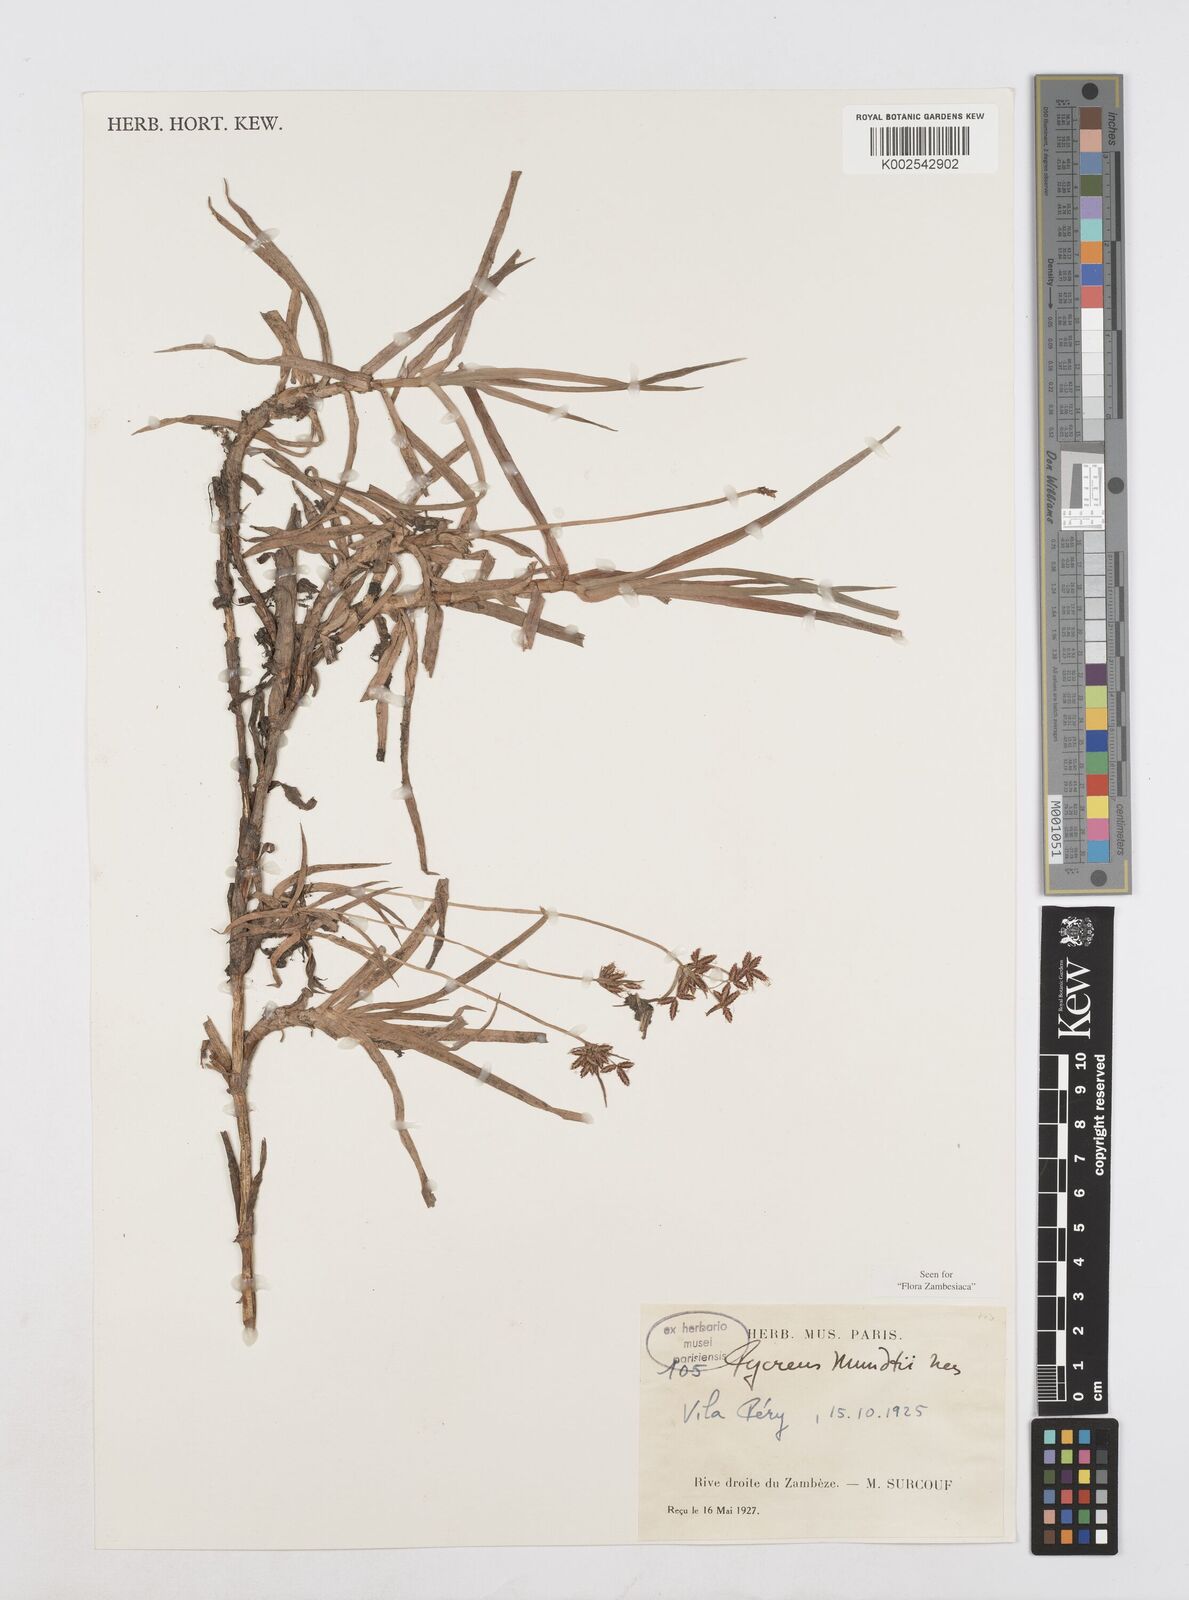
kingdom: Plantae
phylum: Tracheophyta
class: Liliopsida
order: Poales
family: Cyperaceae
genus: Cyperus
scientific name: Cyperus mundii
